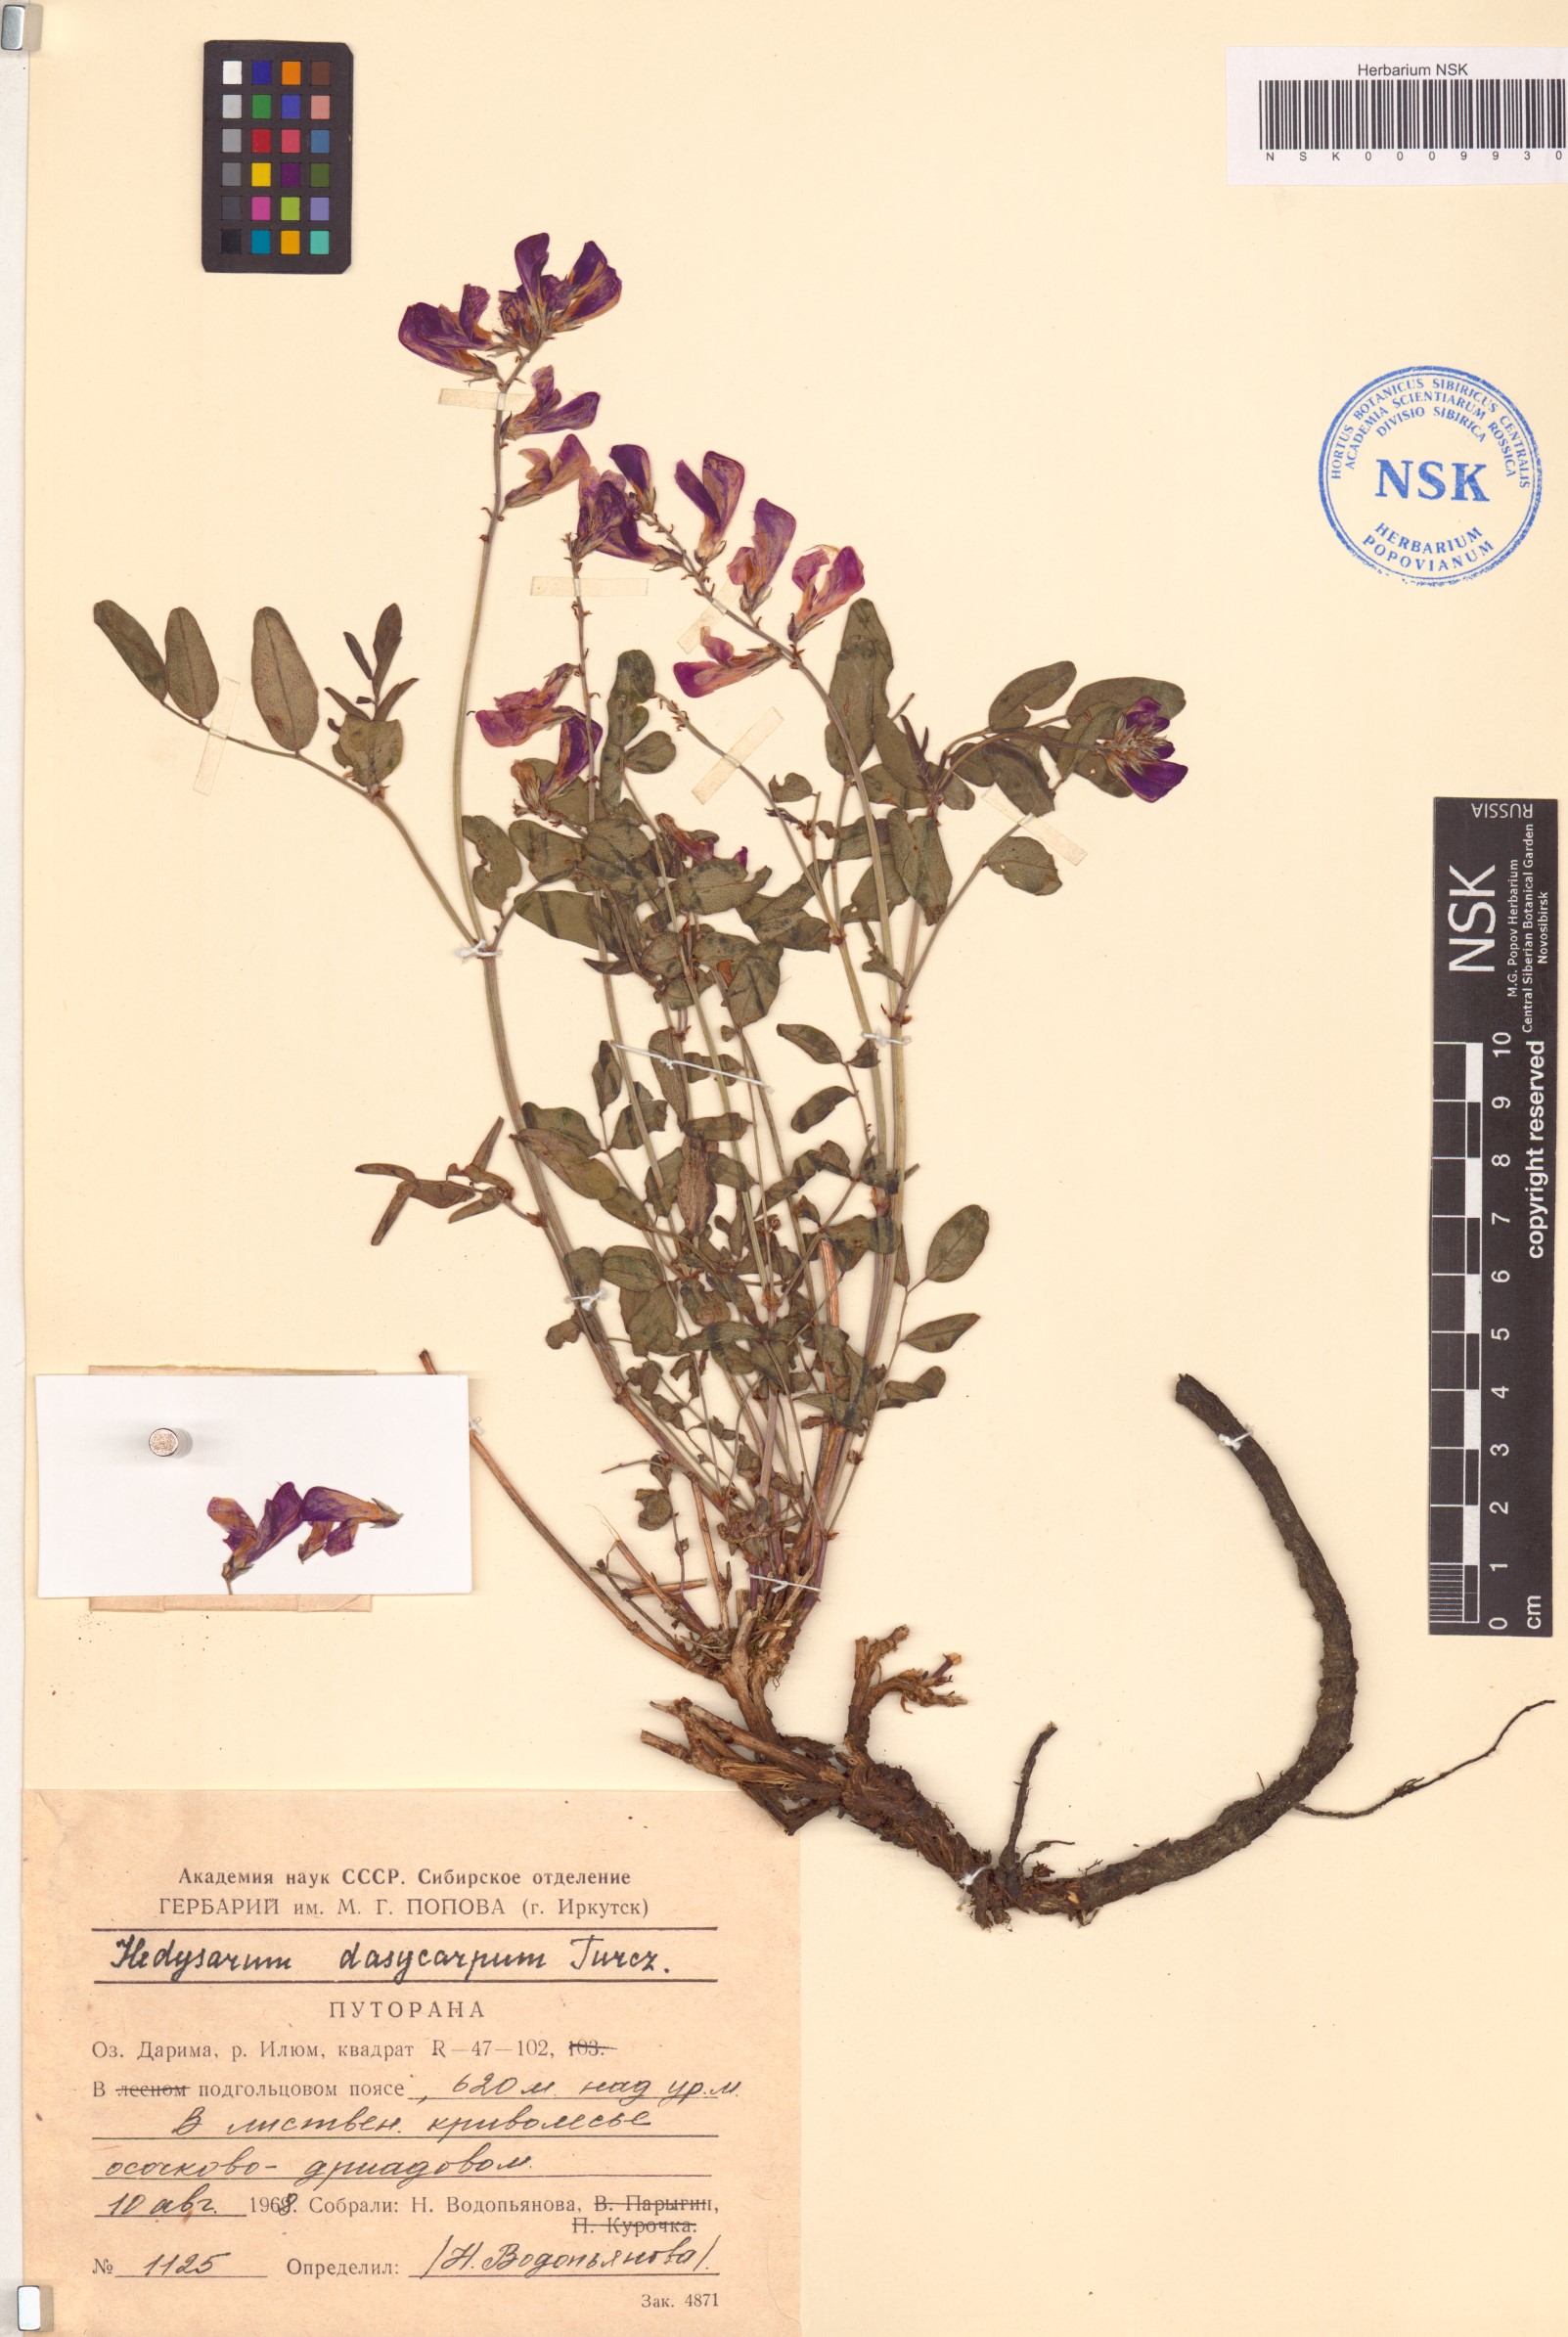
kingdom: Plantae
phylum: Tracheophyta
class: Magnoliopsida
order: Fabales
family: Fabaceae
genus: Hedysarum
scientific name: Hedysarum dasycarpum
